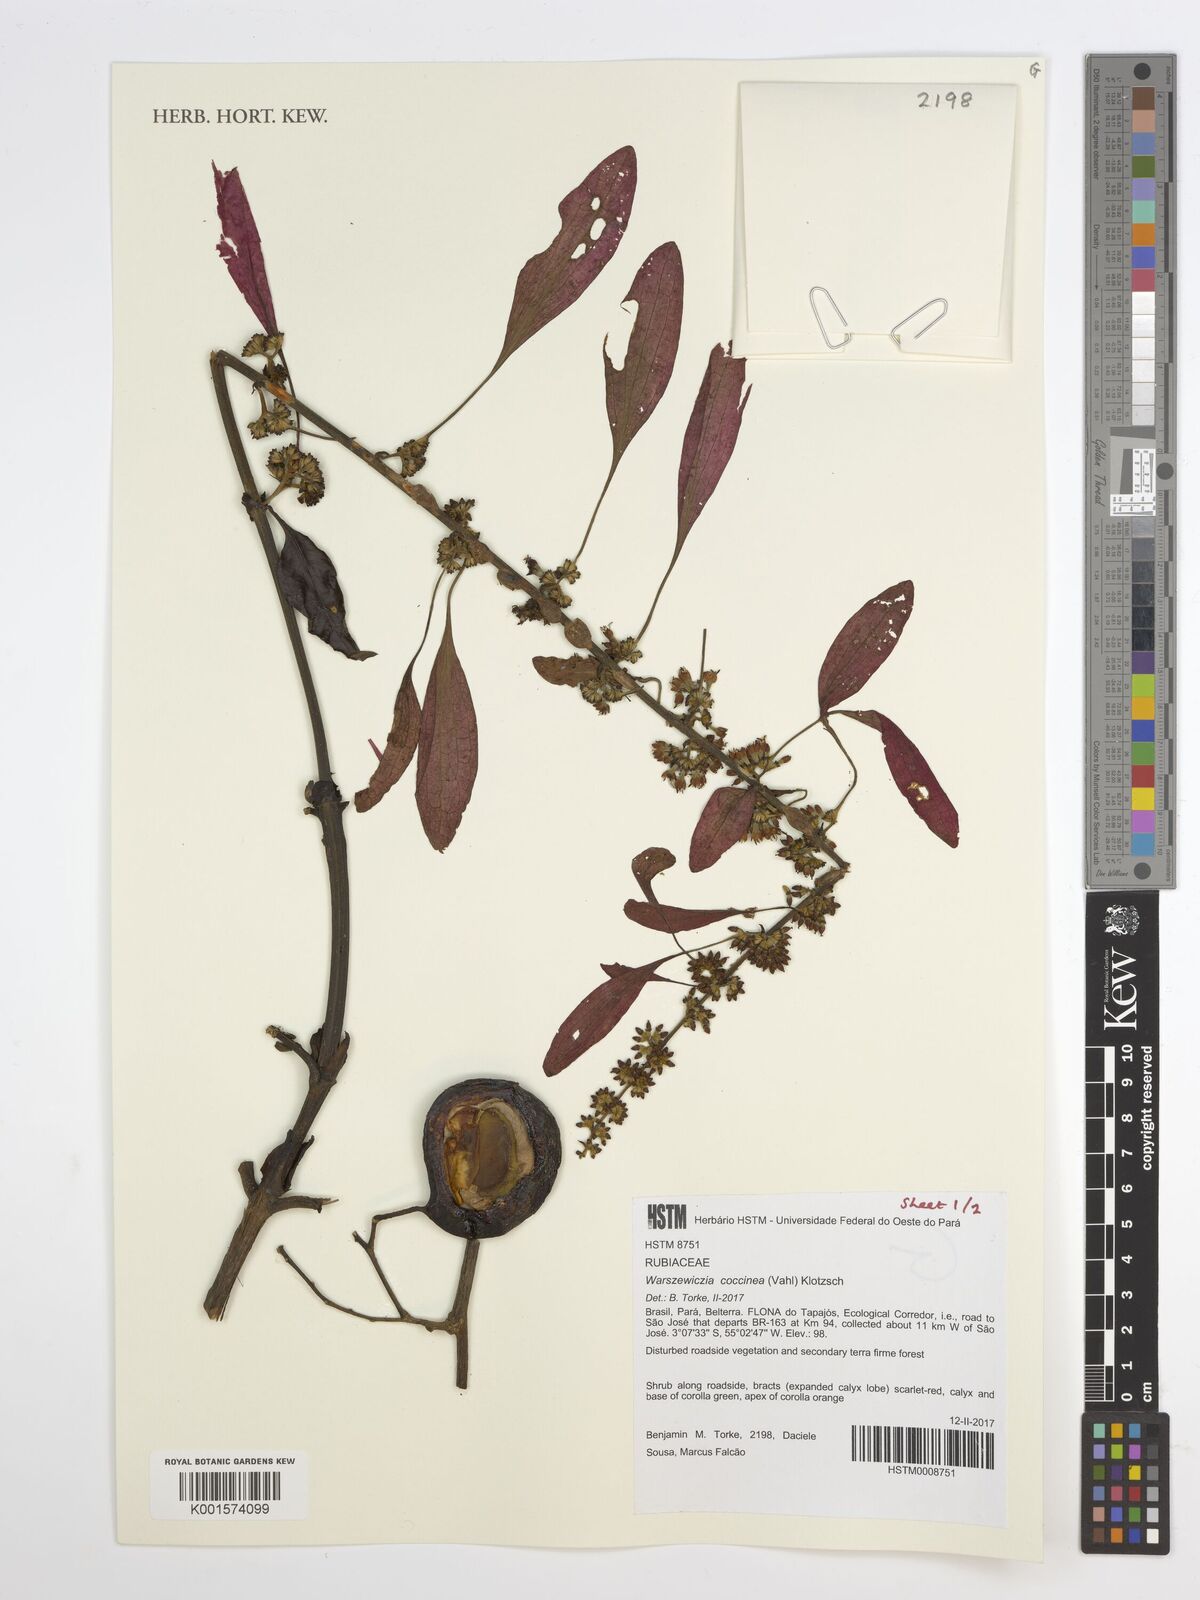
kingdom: Plantae
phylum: Tracheophyta
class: Magnoliopsida
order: Gentianales
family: Rubiaceae
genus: Warszewiczia
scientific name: Warszewiczia coccinea
